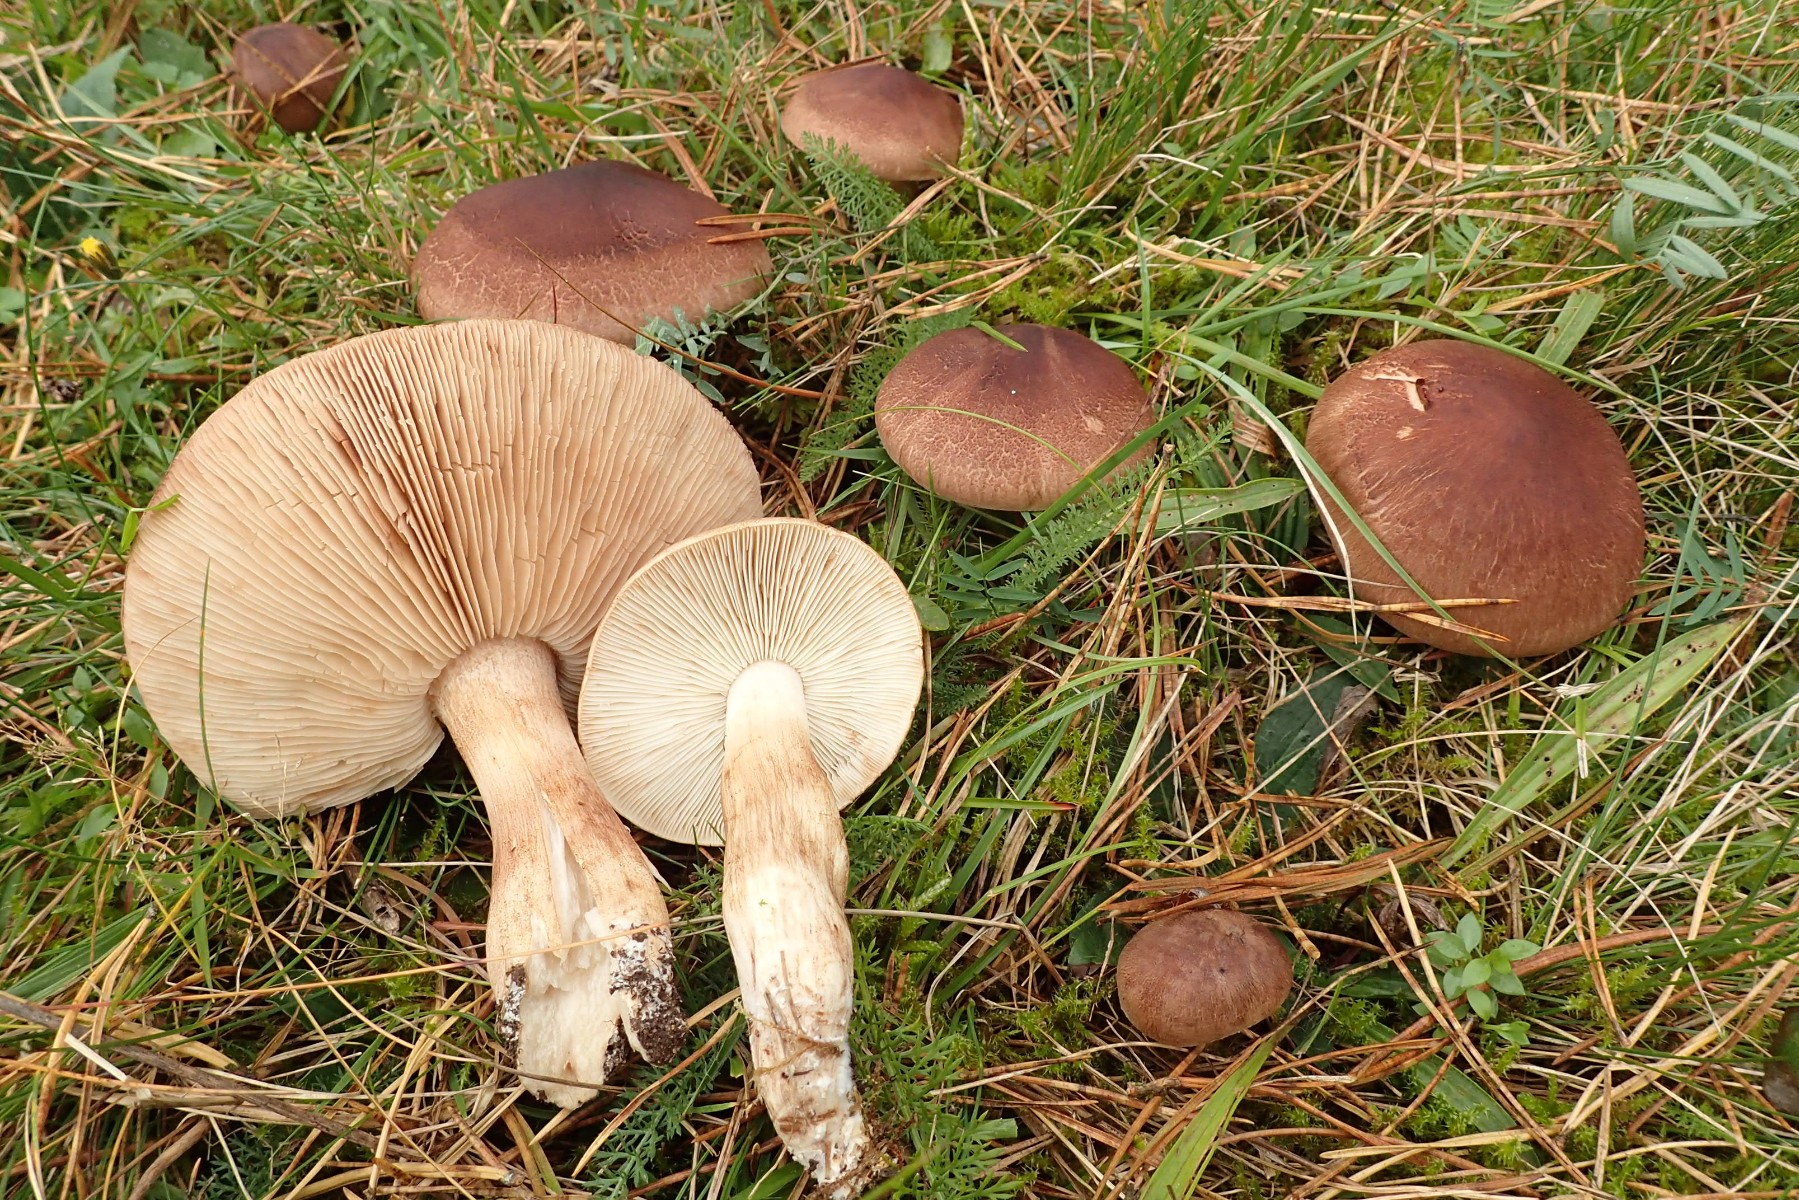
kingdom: Fungi
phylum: Basidiomycota
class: Agaricomycetes
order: Agaricales
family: Tricholomataceae
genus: Tricholoma
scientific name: Tricholoma imbricatum
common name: skællet ridderhat
